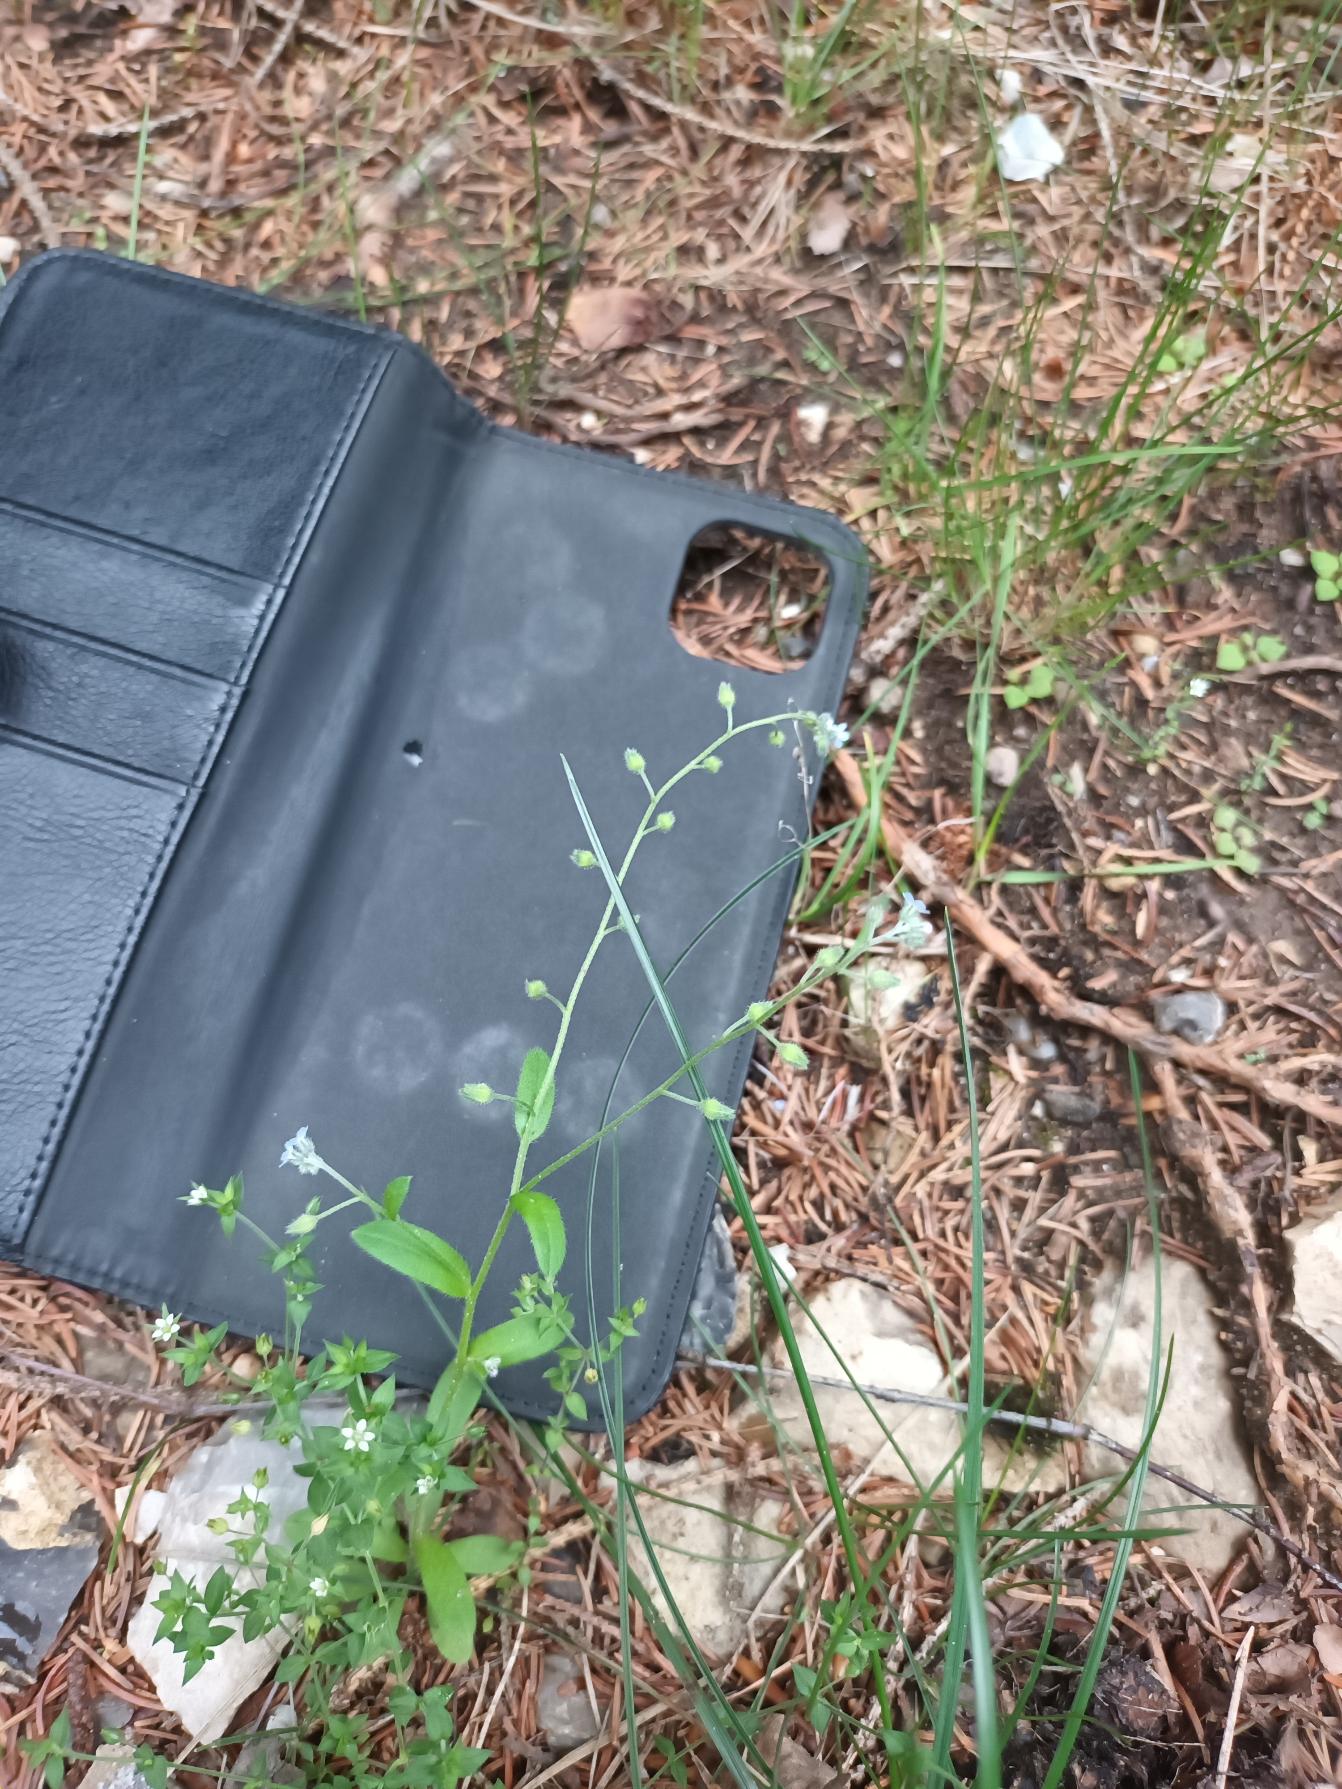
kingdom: Plantae
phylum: Tracheophyta
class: Magnoliopsida
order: Boraginales
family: Boraginaceae
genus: Myosotis
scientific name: Myosotis arvensis
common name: Mark-forglemmigej
